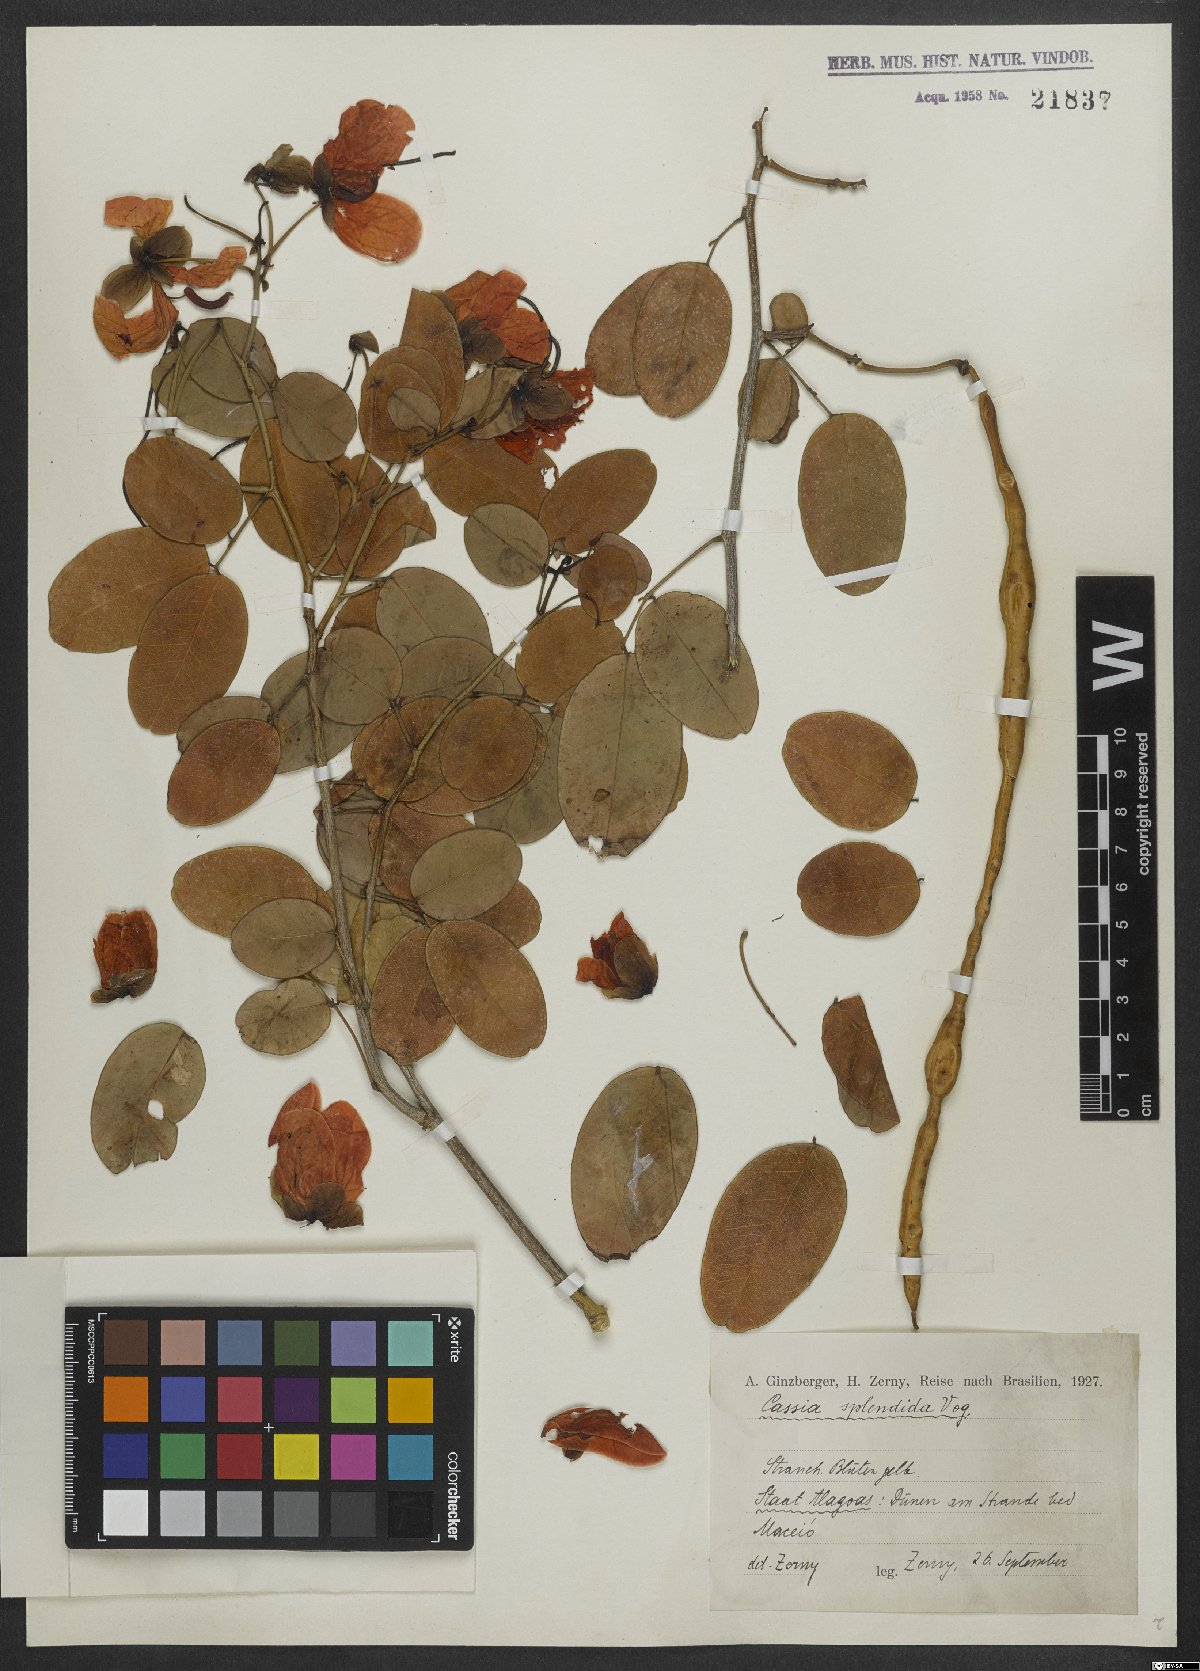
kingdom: Plantae
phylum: Tracheophyta
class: Magnoliopsida
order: Fabales
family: Fabaceae
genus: Senna
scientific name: Senna splendida
